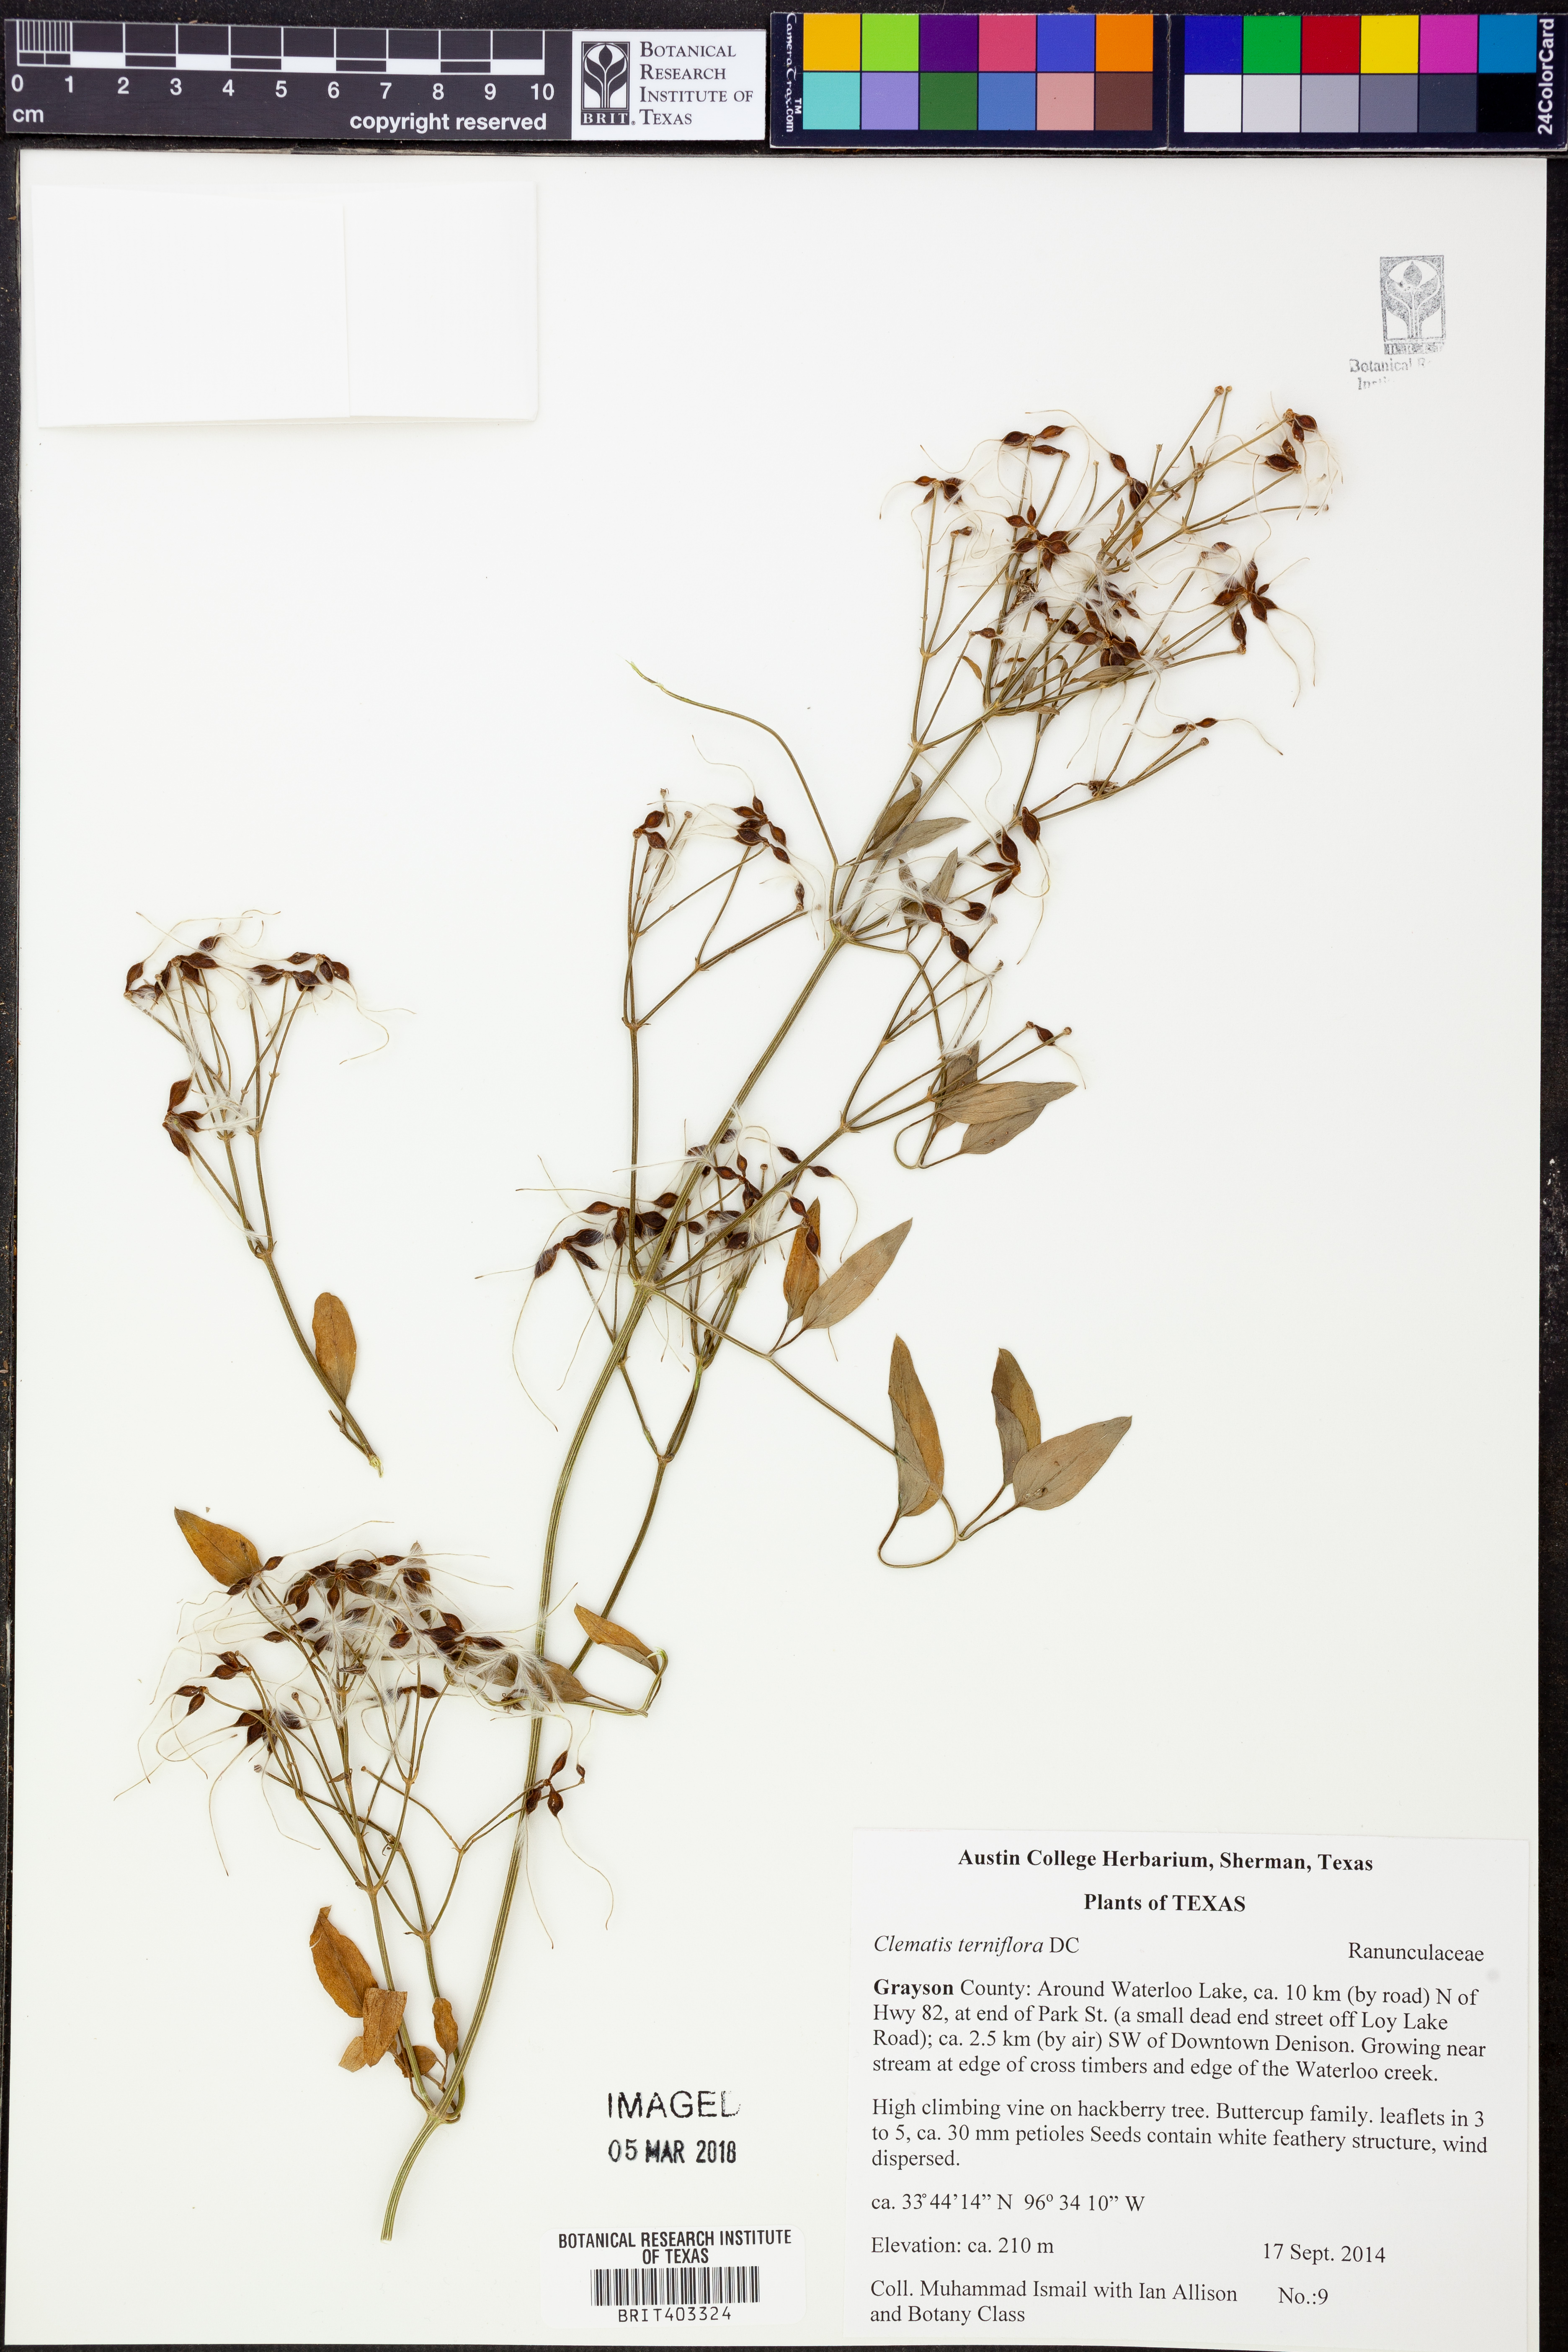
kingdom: Plantae
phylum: Tracheophyta
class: Magnoliopsida
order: Ranunculales
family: Ranunculaceae
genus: Clematis
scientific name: Clematis terniflora
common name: Sweet autumn clematis
